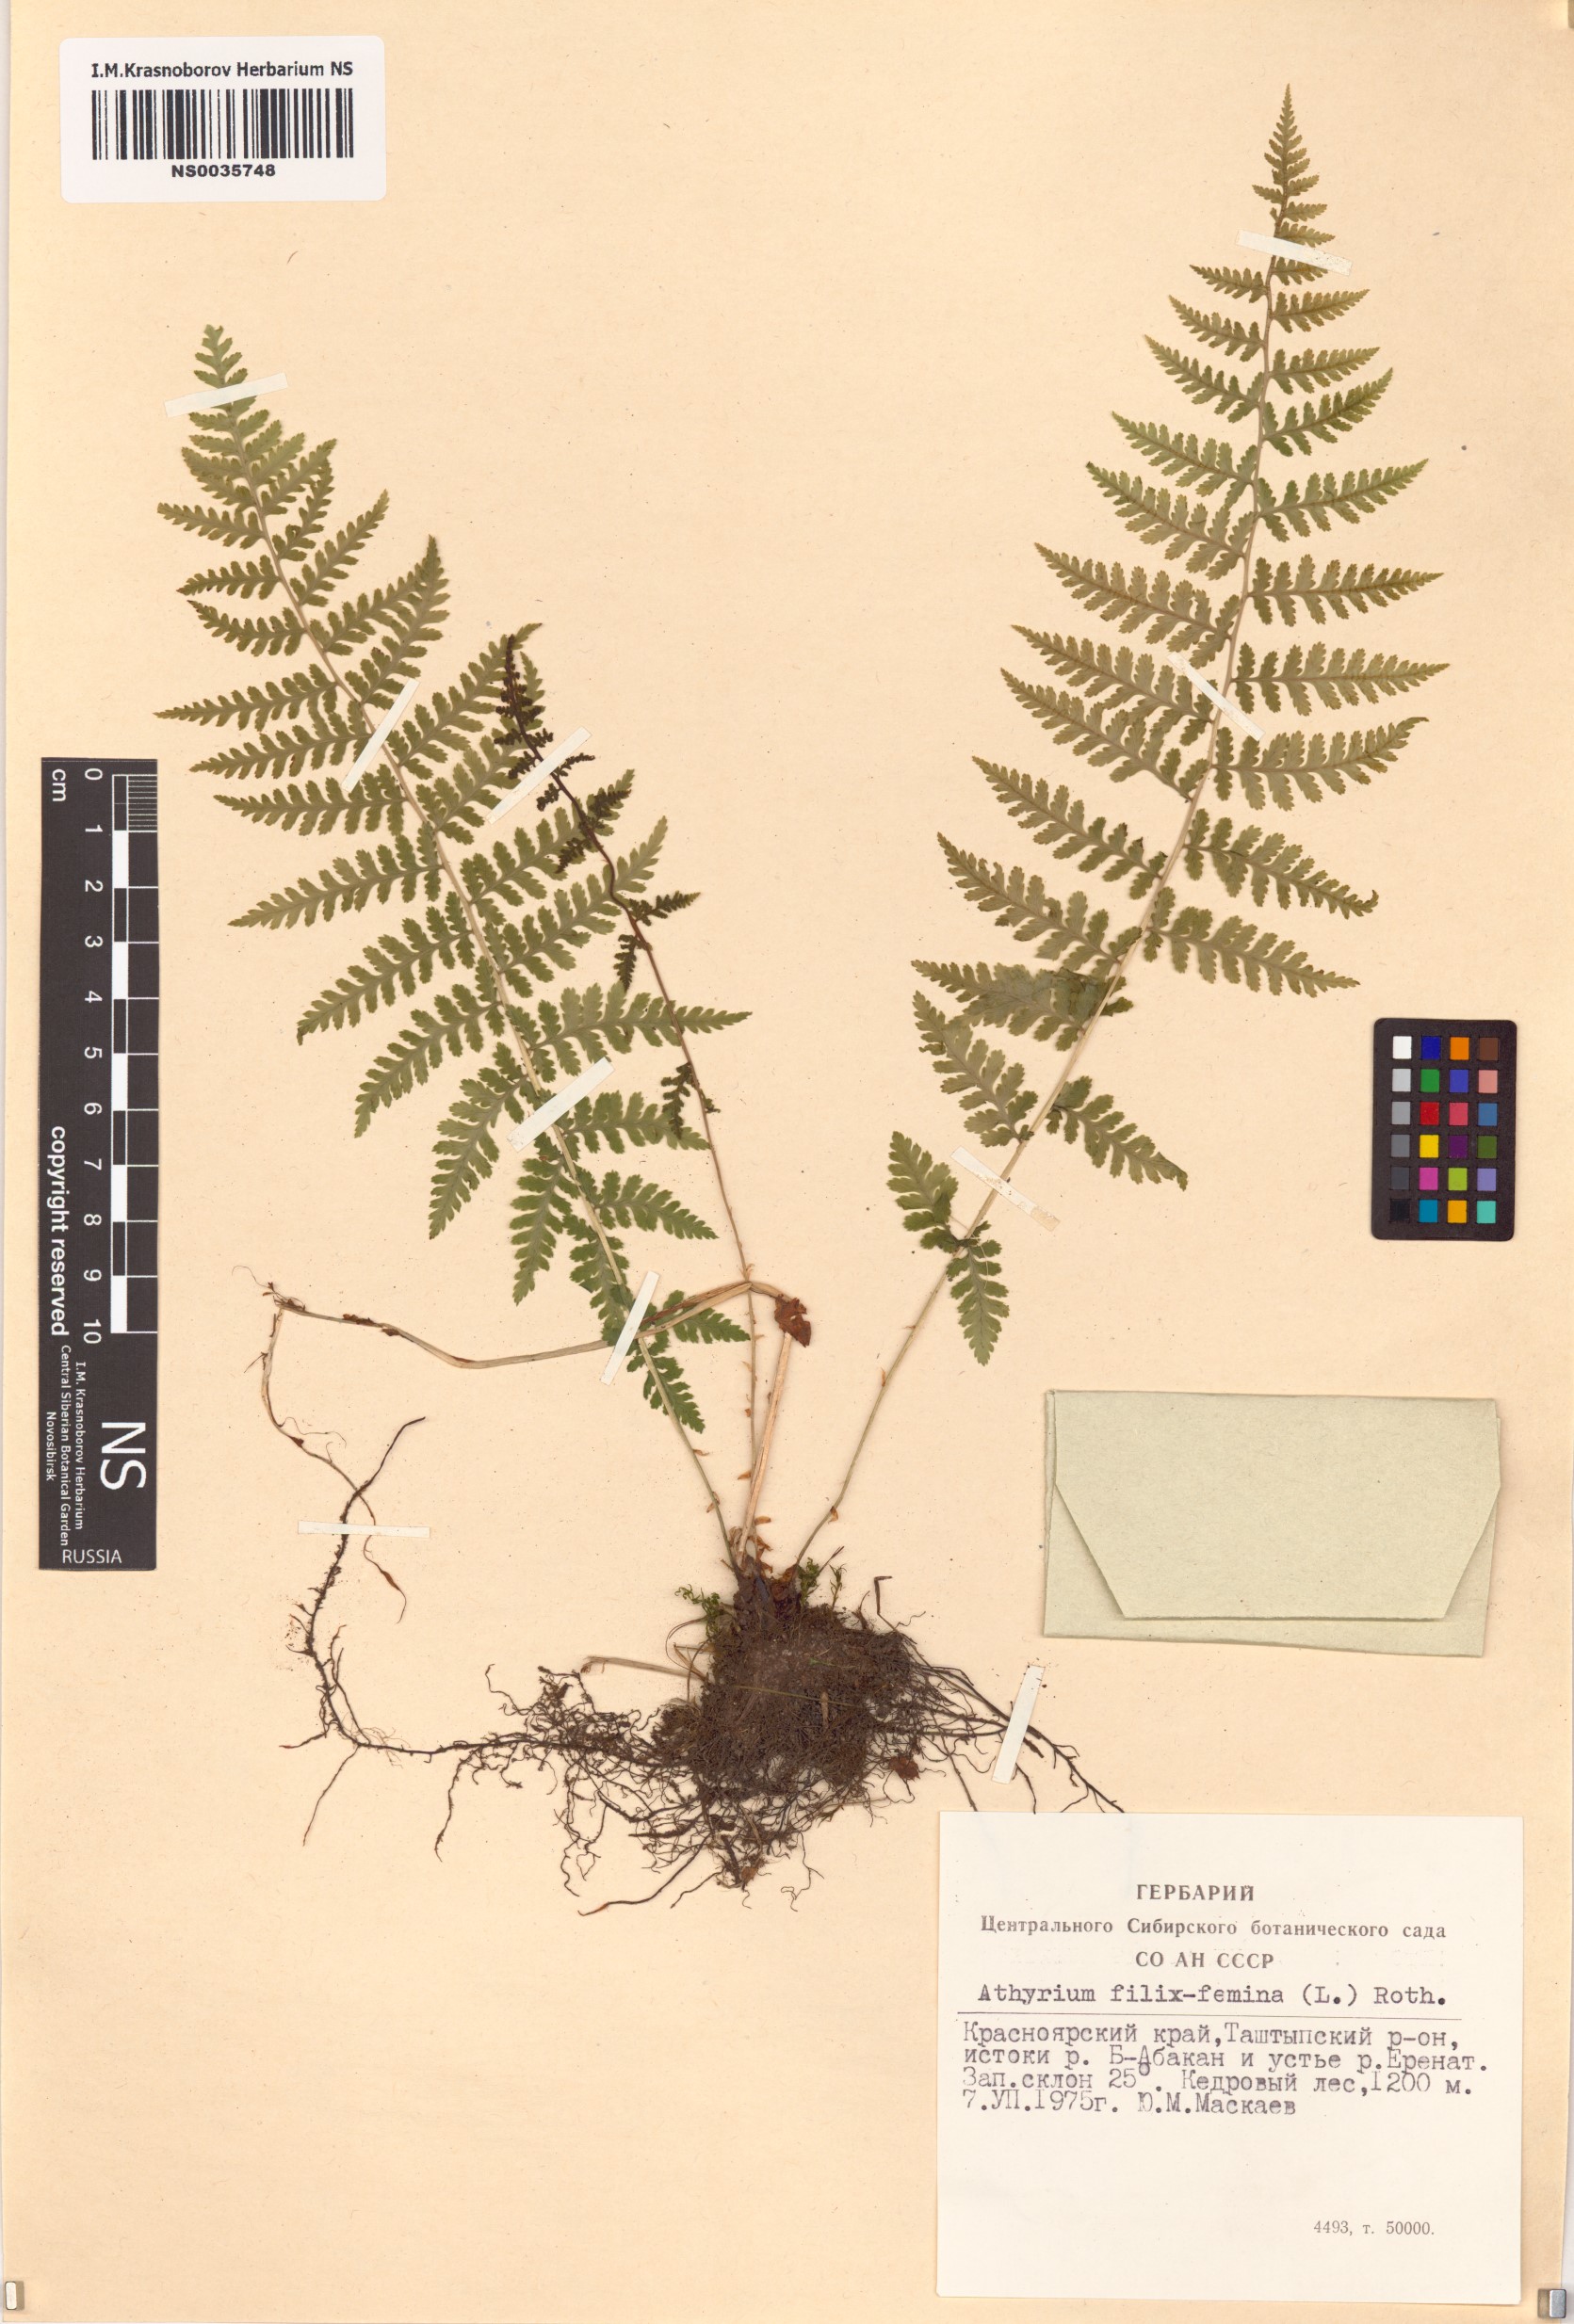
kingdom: Plantae
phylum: Tracheophyta
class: Polypodiopsida
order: Polypodiales
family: Athyriaceae
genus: Athyrium
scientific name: Athyrium filix-femina
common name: Lady fern
